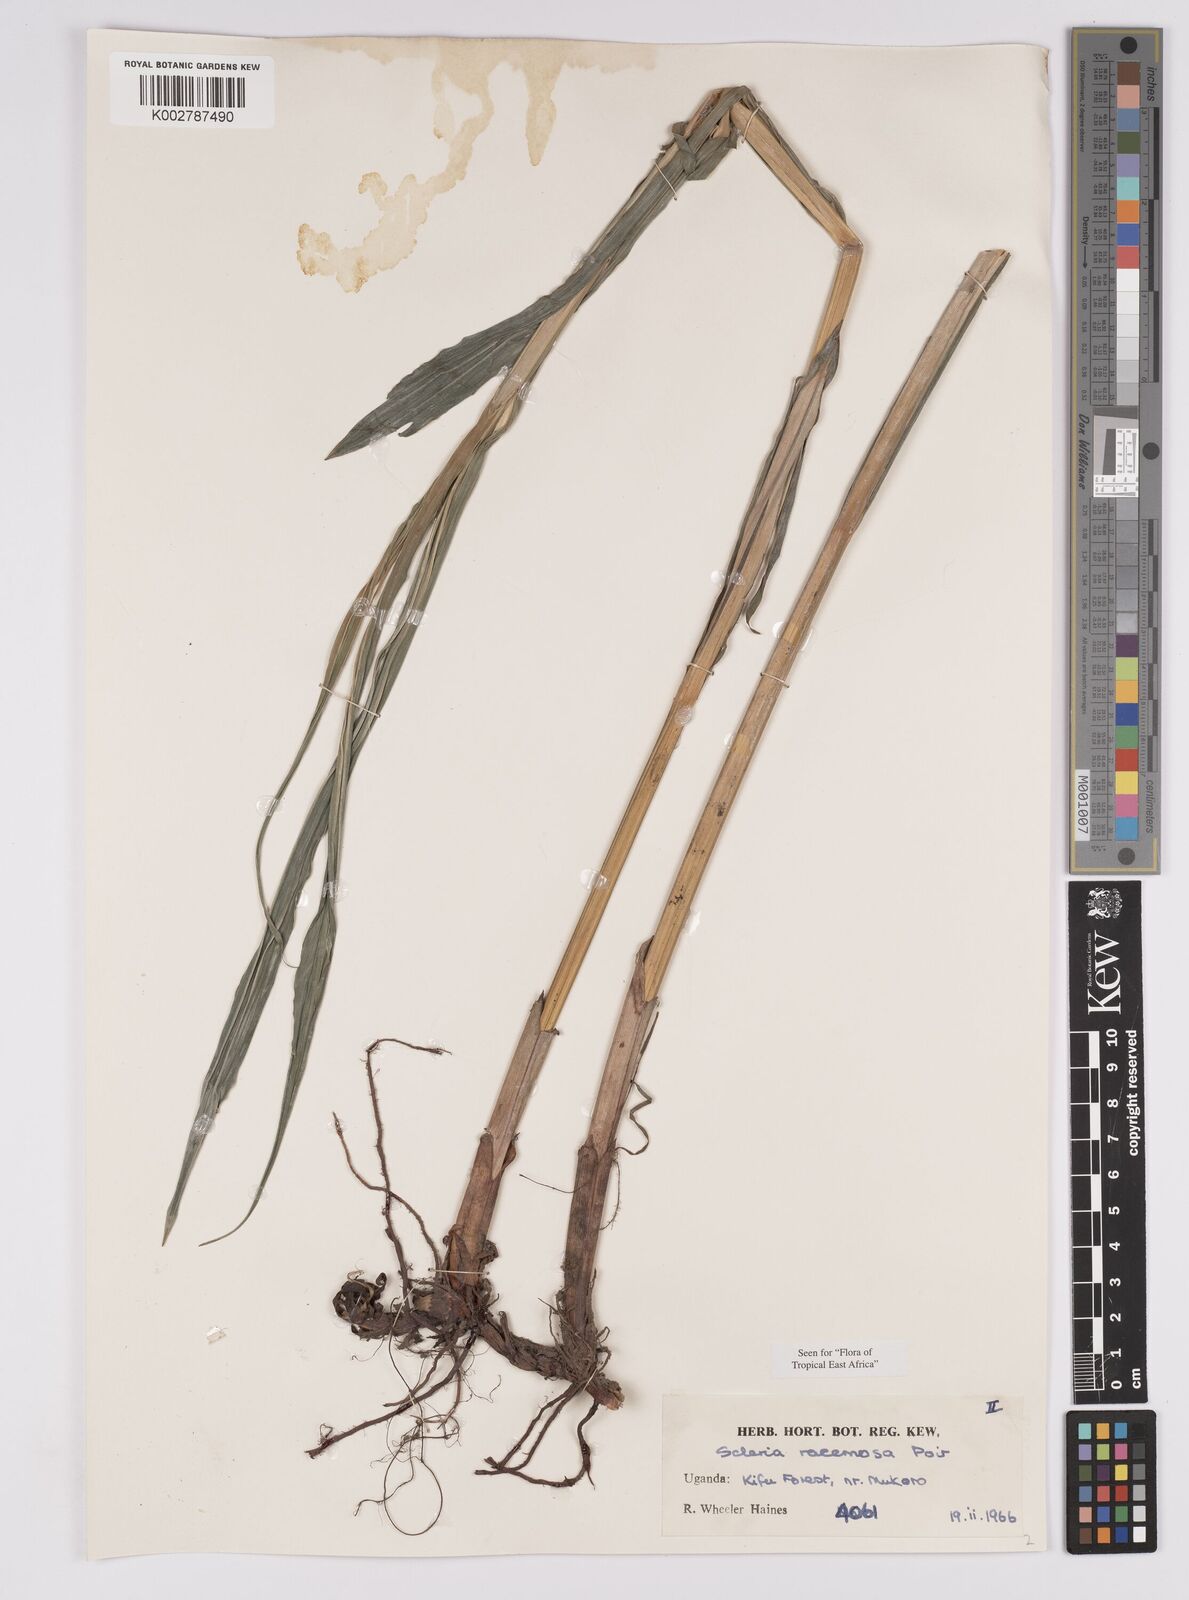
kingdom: Plantae
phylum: Tracheophyta
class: Liliopsida
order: Poales
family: Cyperaceae
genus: Scleria
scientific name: Scleria racemosa
